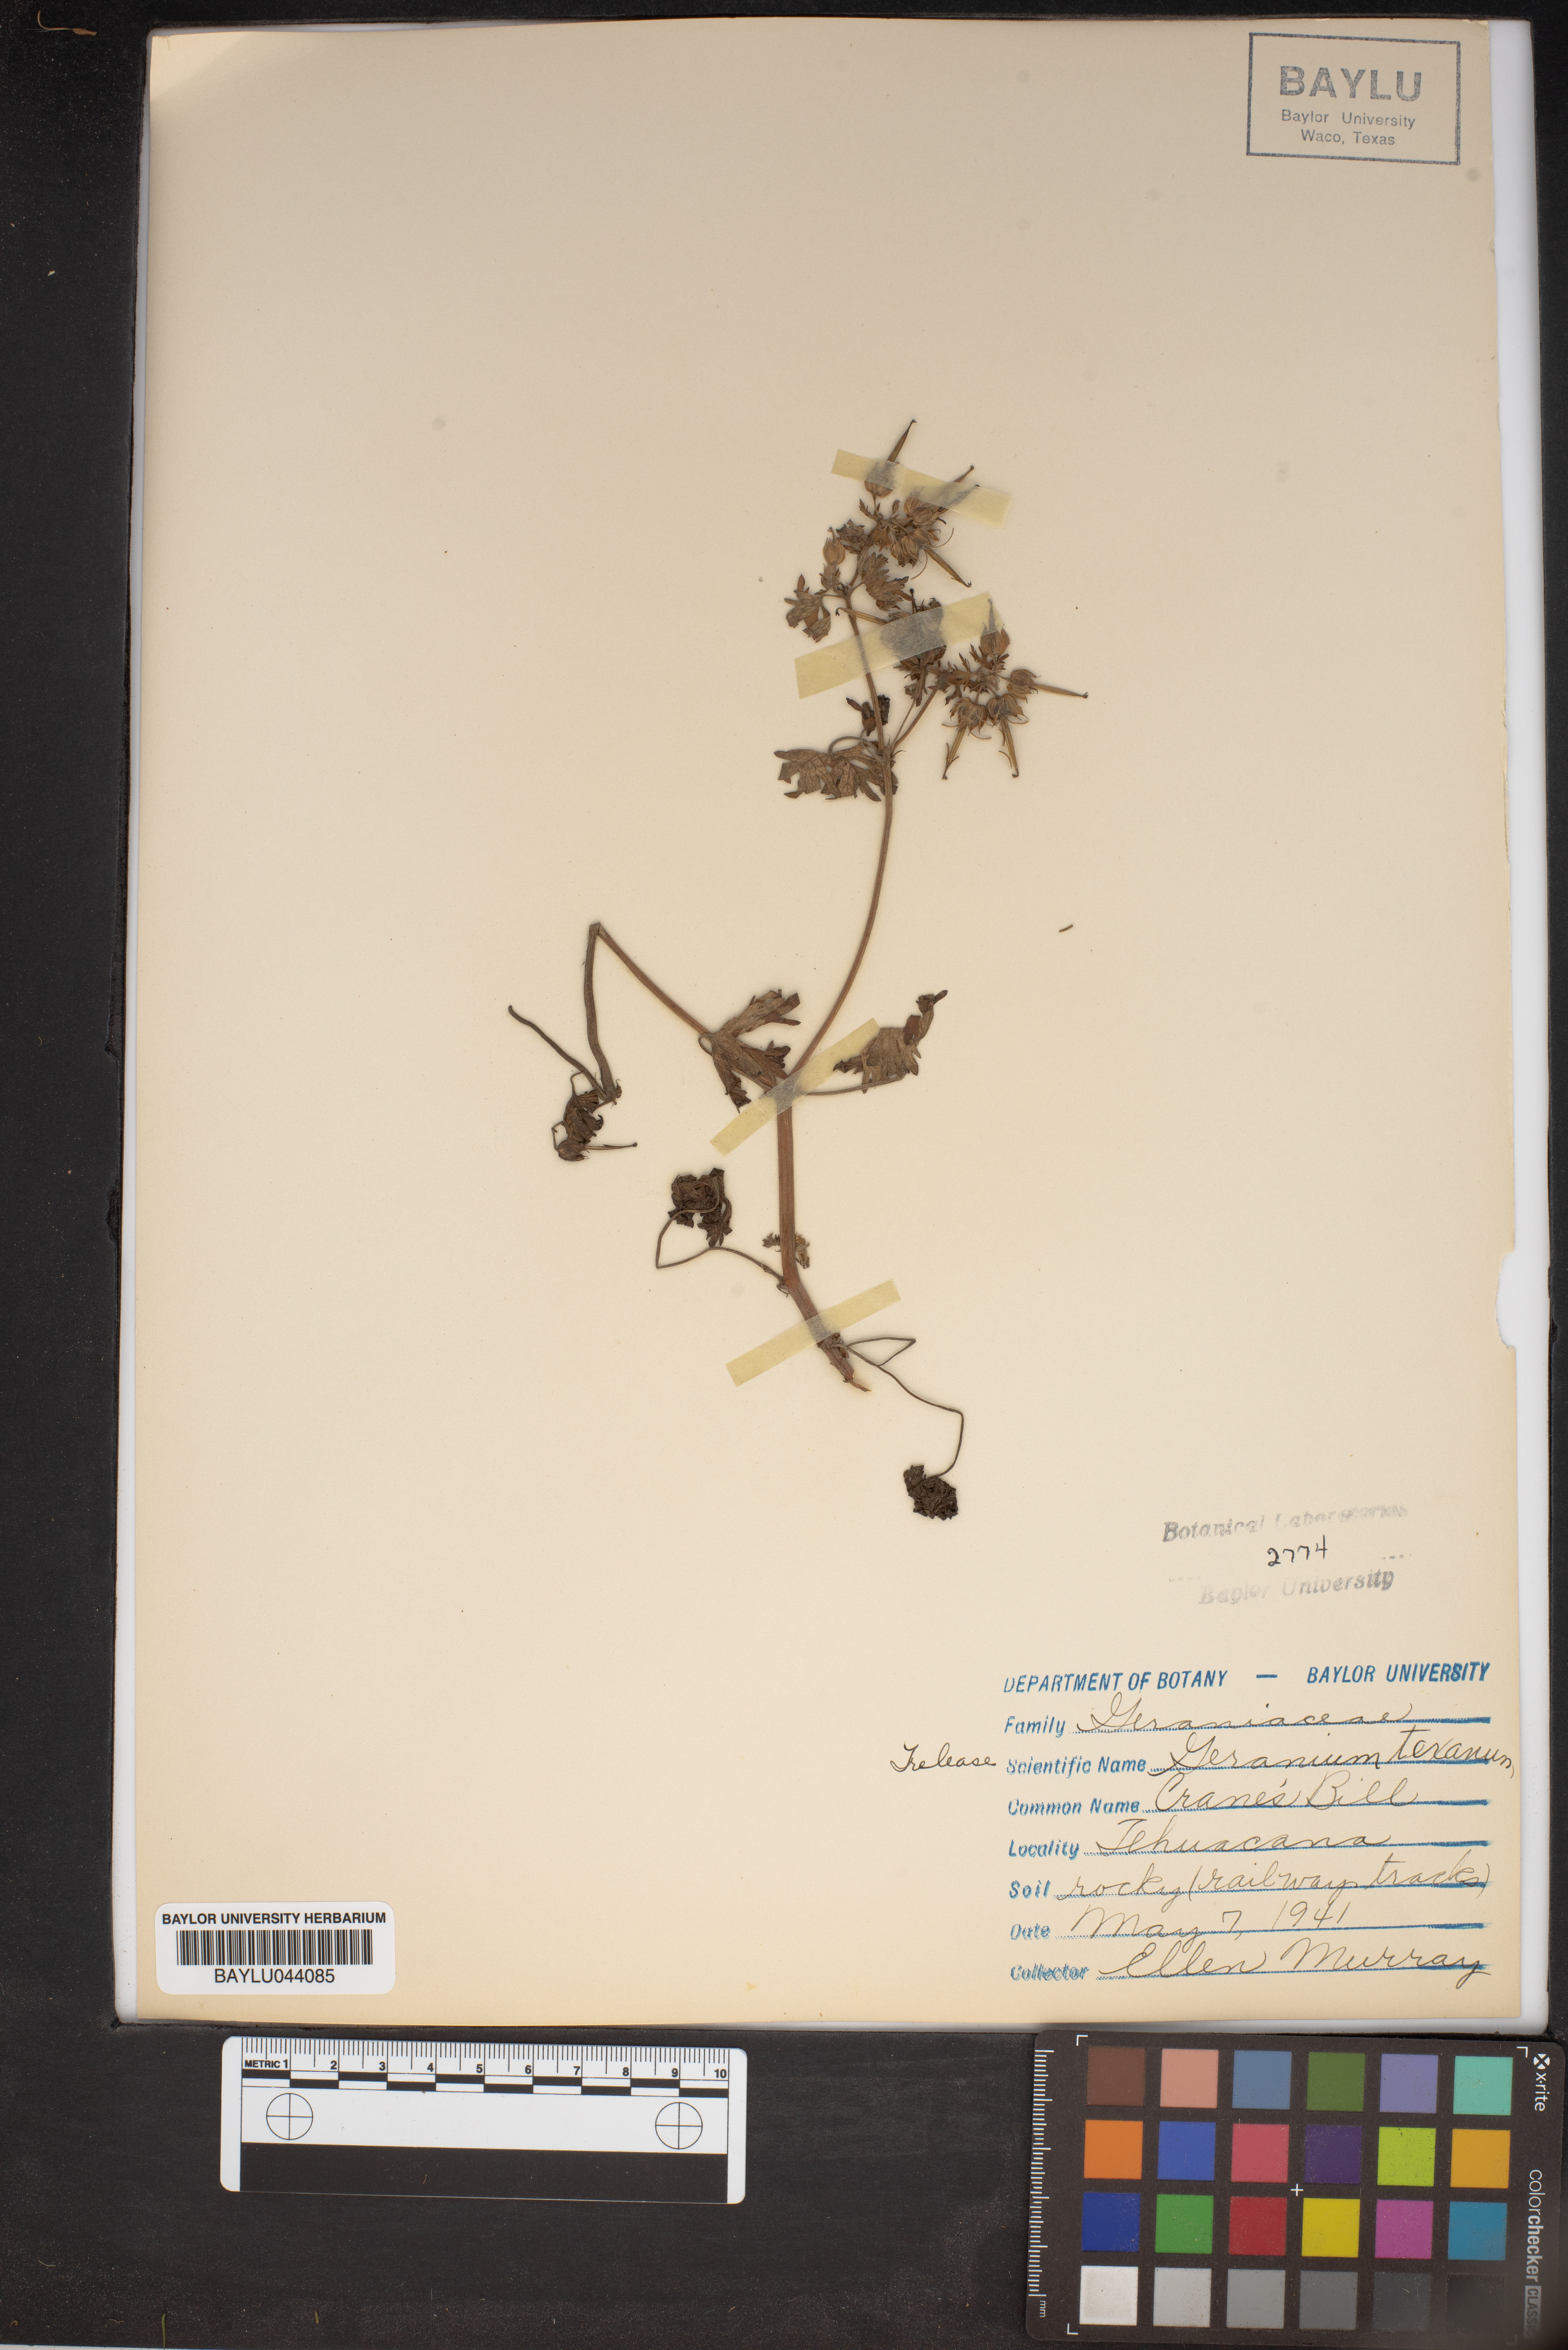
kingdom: Plantae
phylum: Tracheophyta
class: Magnoliopsida
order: Geraniales
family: Geraniaceae
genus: Geranium
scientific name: Geranium texanum
